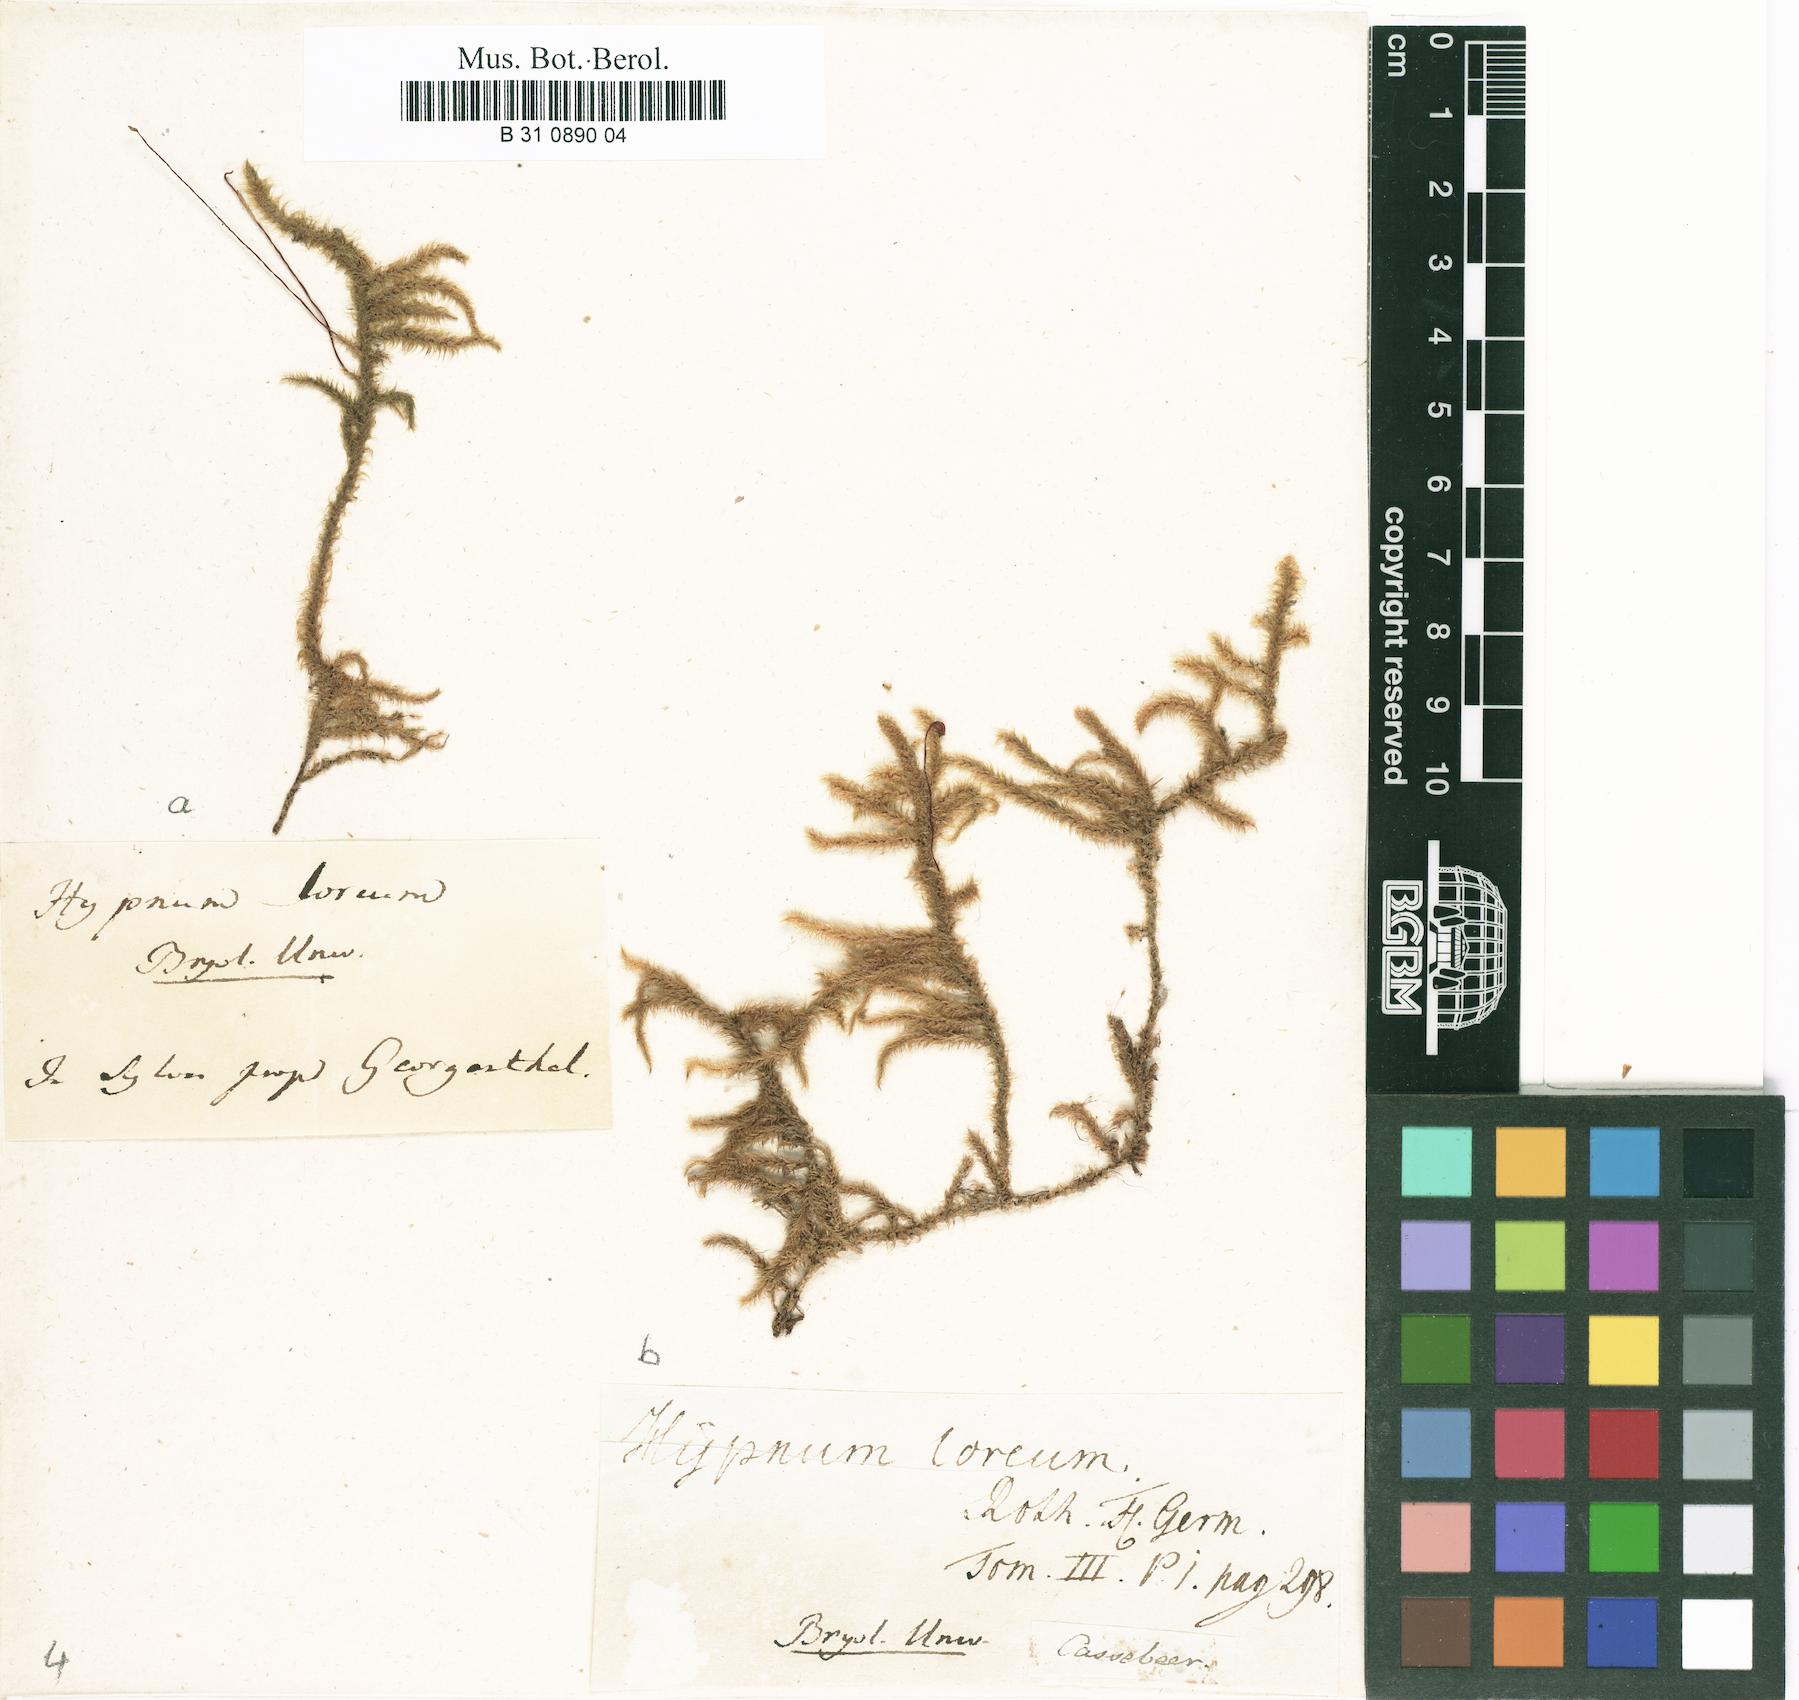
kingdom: Plantae
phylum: Bryophyta
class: Bryopsida
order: Hypnales
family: Hylocomiaceae
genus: Rhytidiadelphus
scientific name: Rhytidiadelphus loreus
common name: Lanky moss
